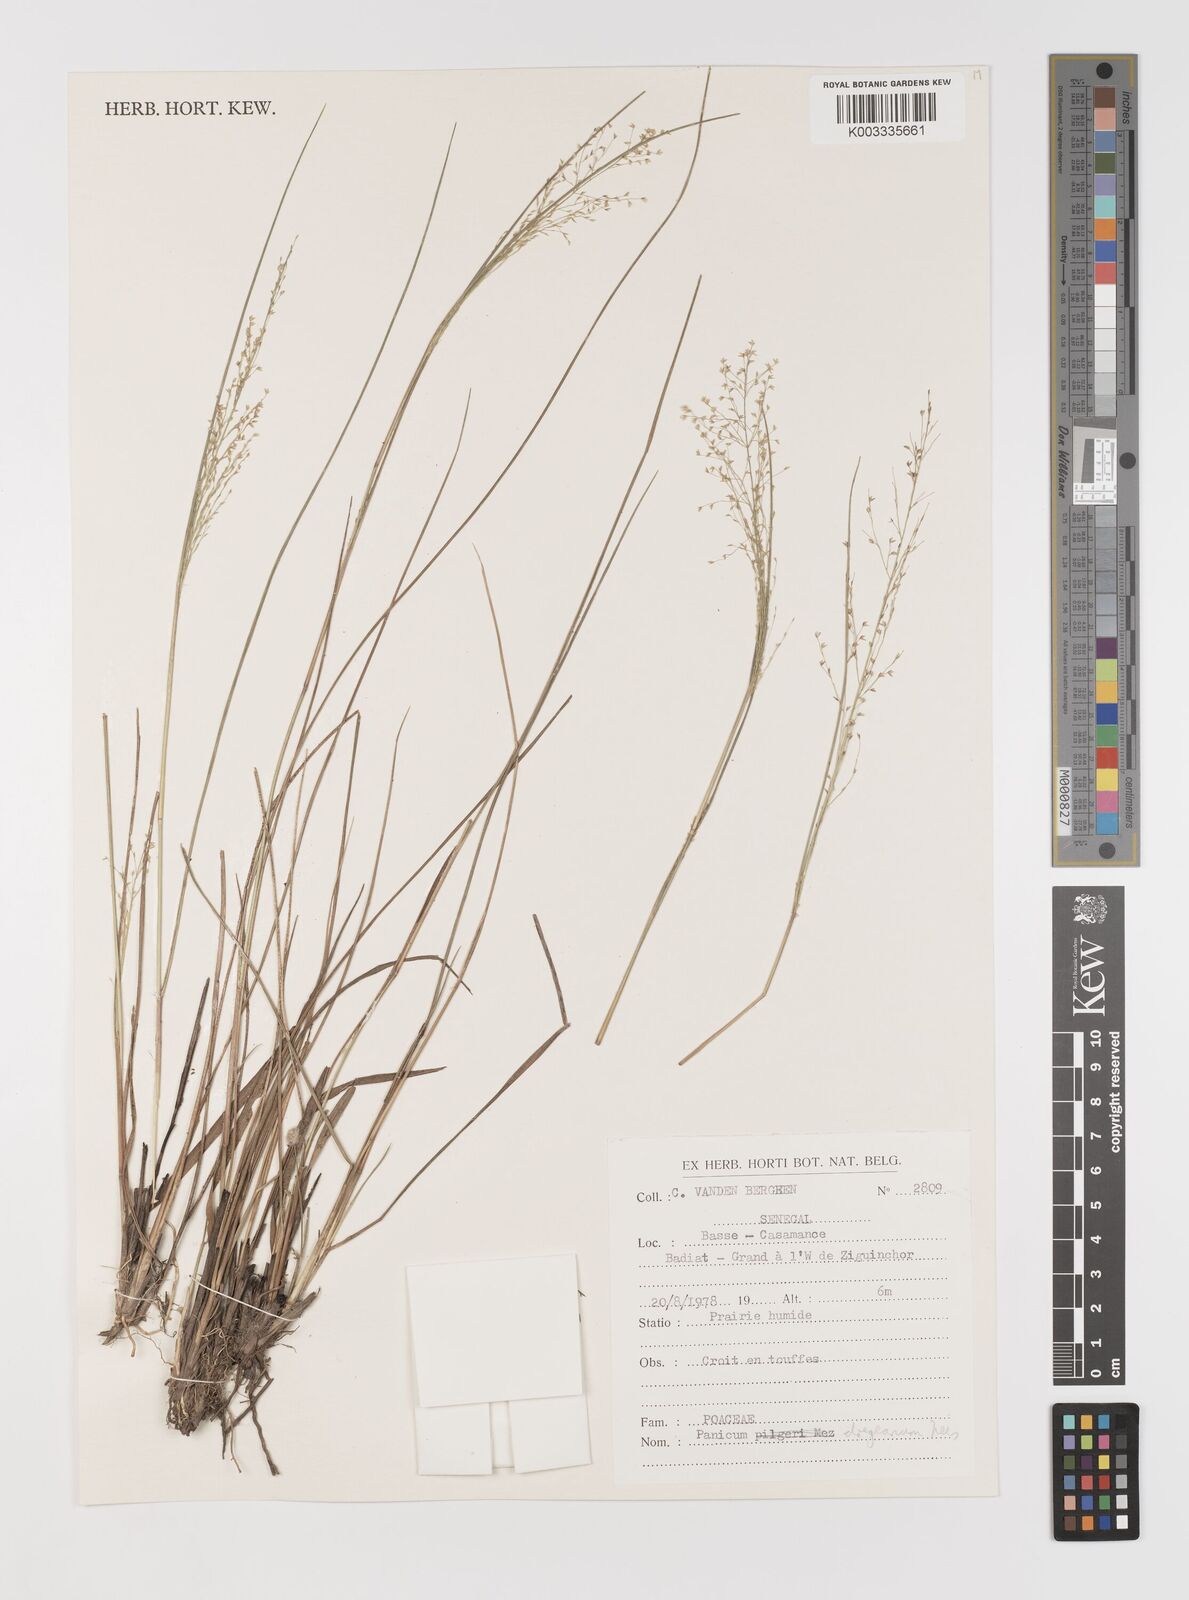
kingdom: Plantae
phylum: Tracheophyta
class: Liliopsida
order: Poales
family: Poaceae
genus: Panicum
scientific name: Panicum dregeanum
